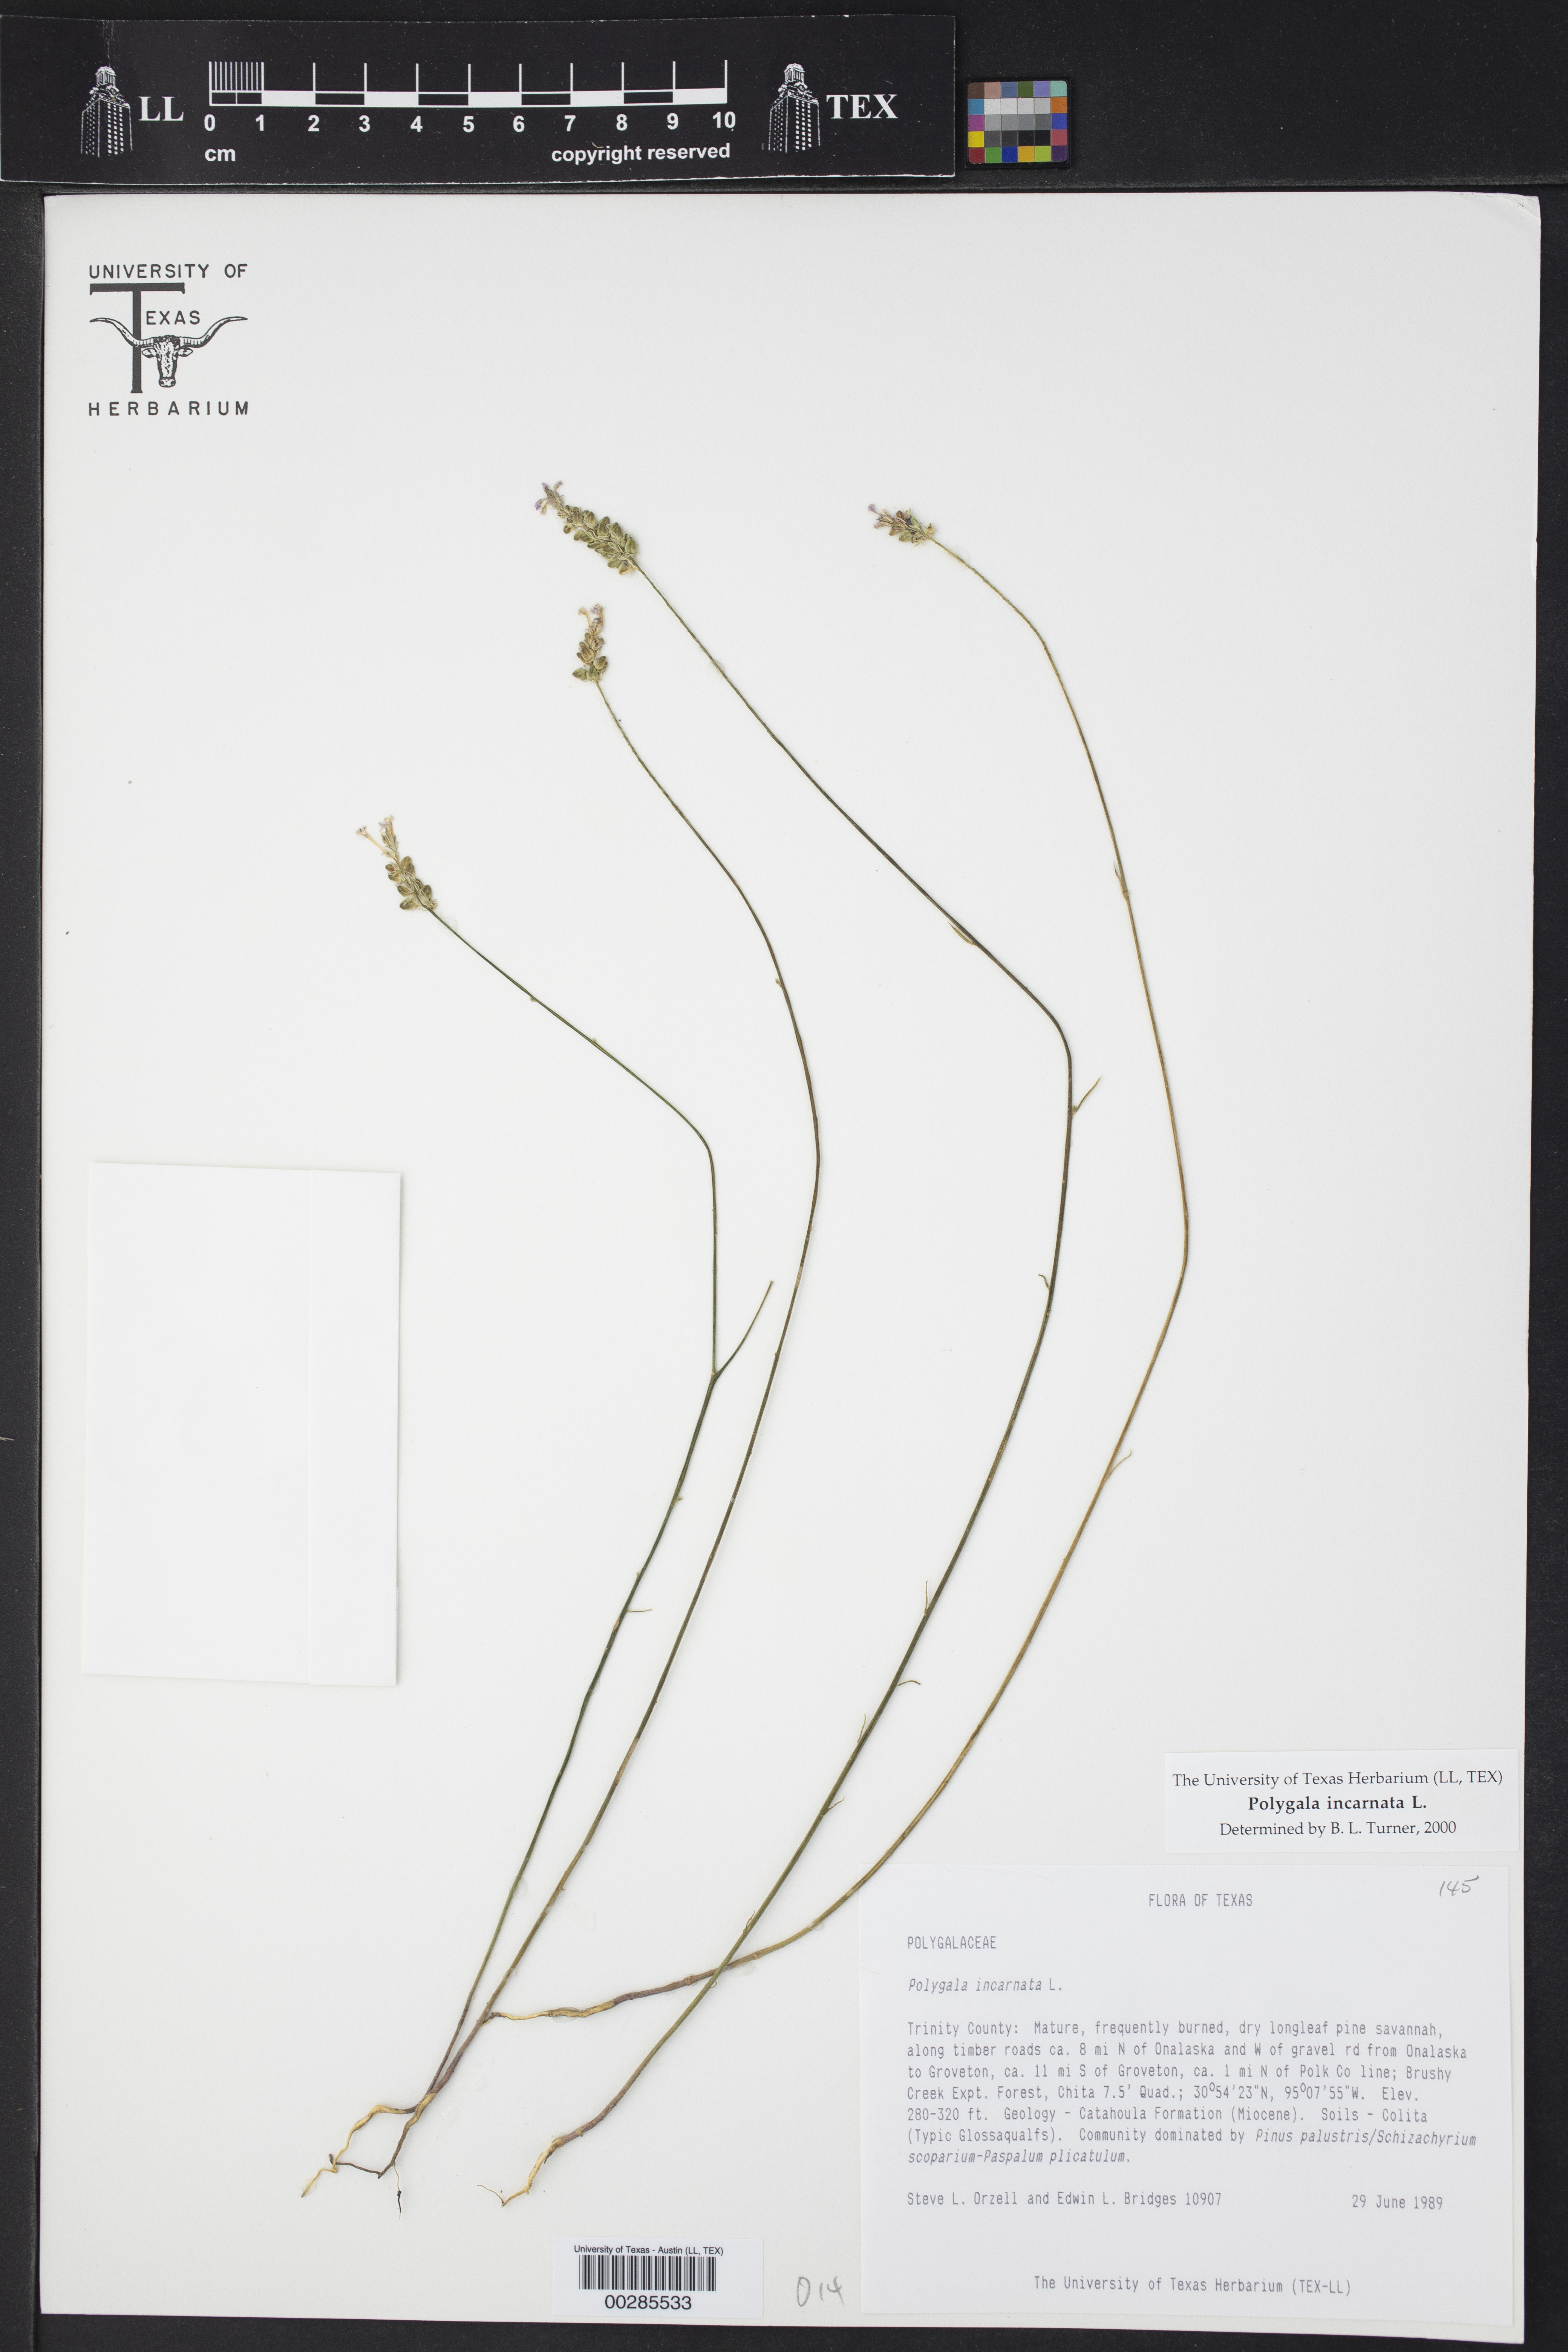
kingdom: Plantae
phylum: Tracheophyta
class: Magnoliopsida
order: Fabales
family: Polygalaceae
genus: Polygala
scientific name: Polygala incarnata
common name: Pink milkwort
